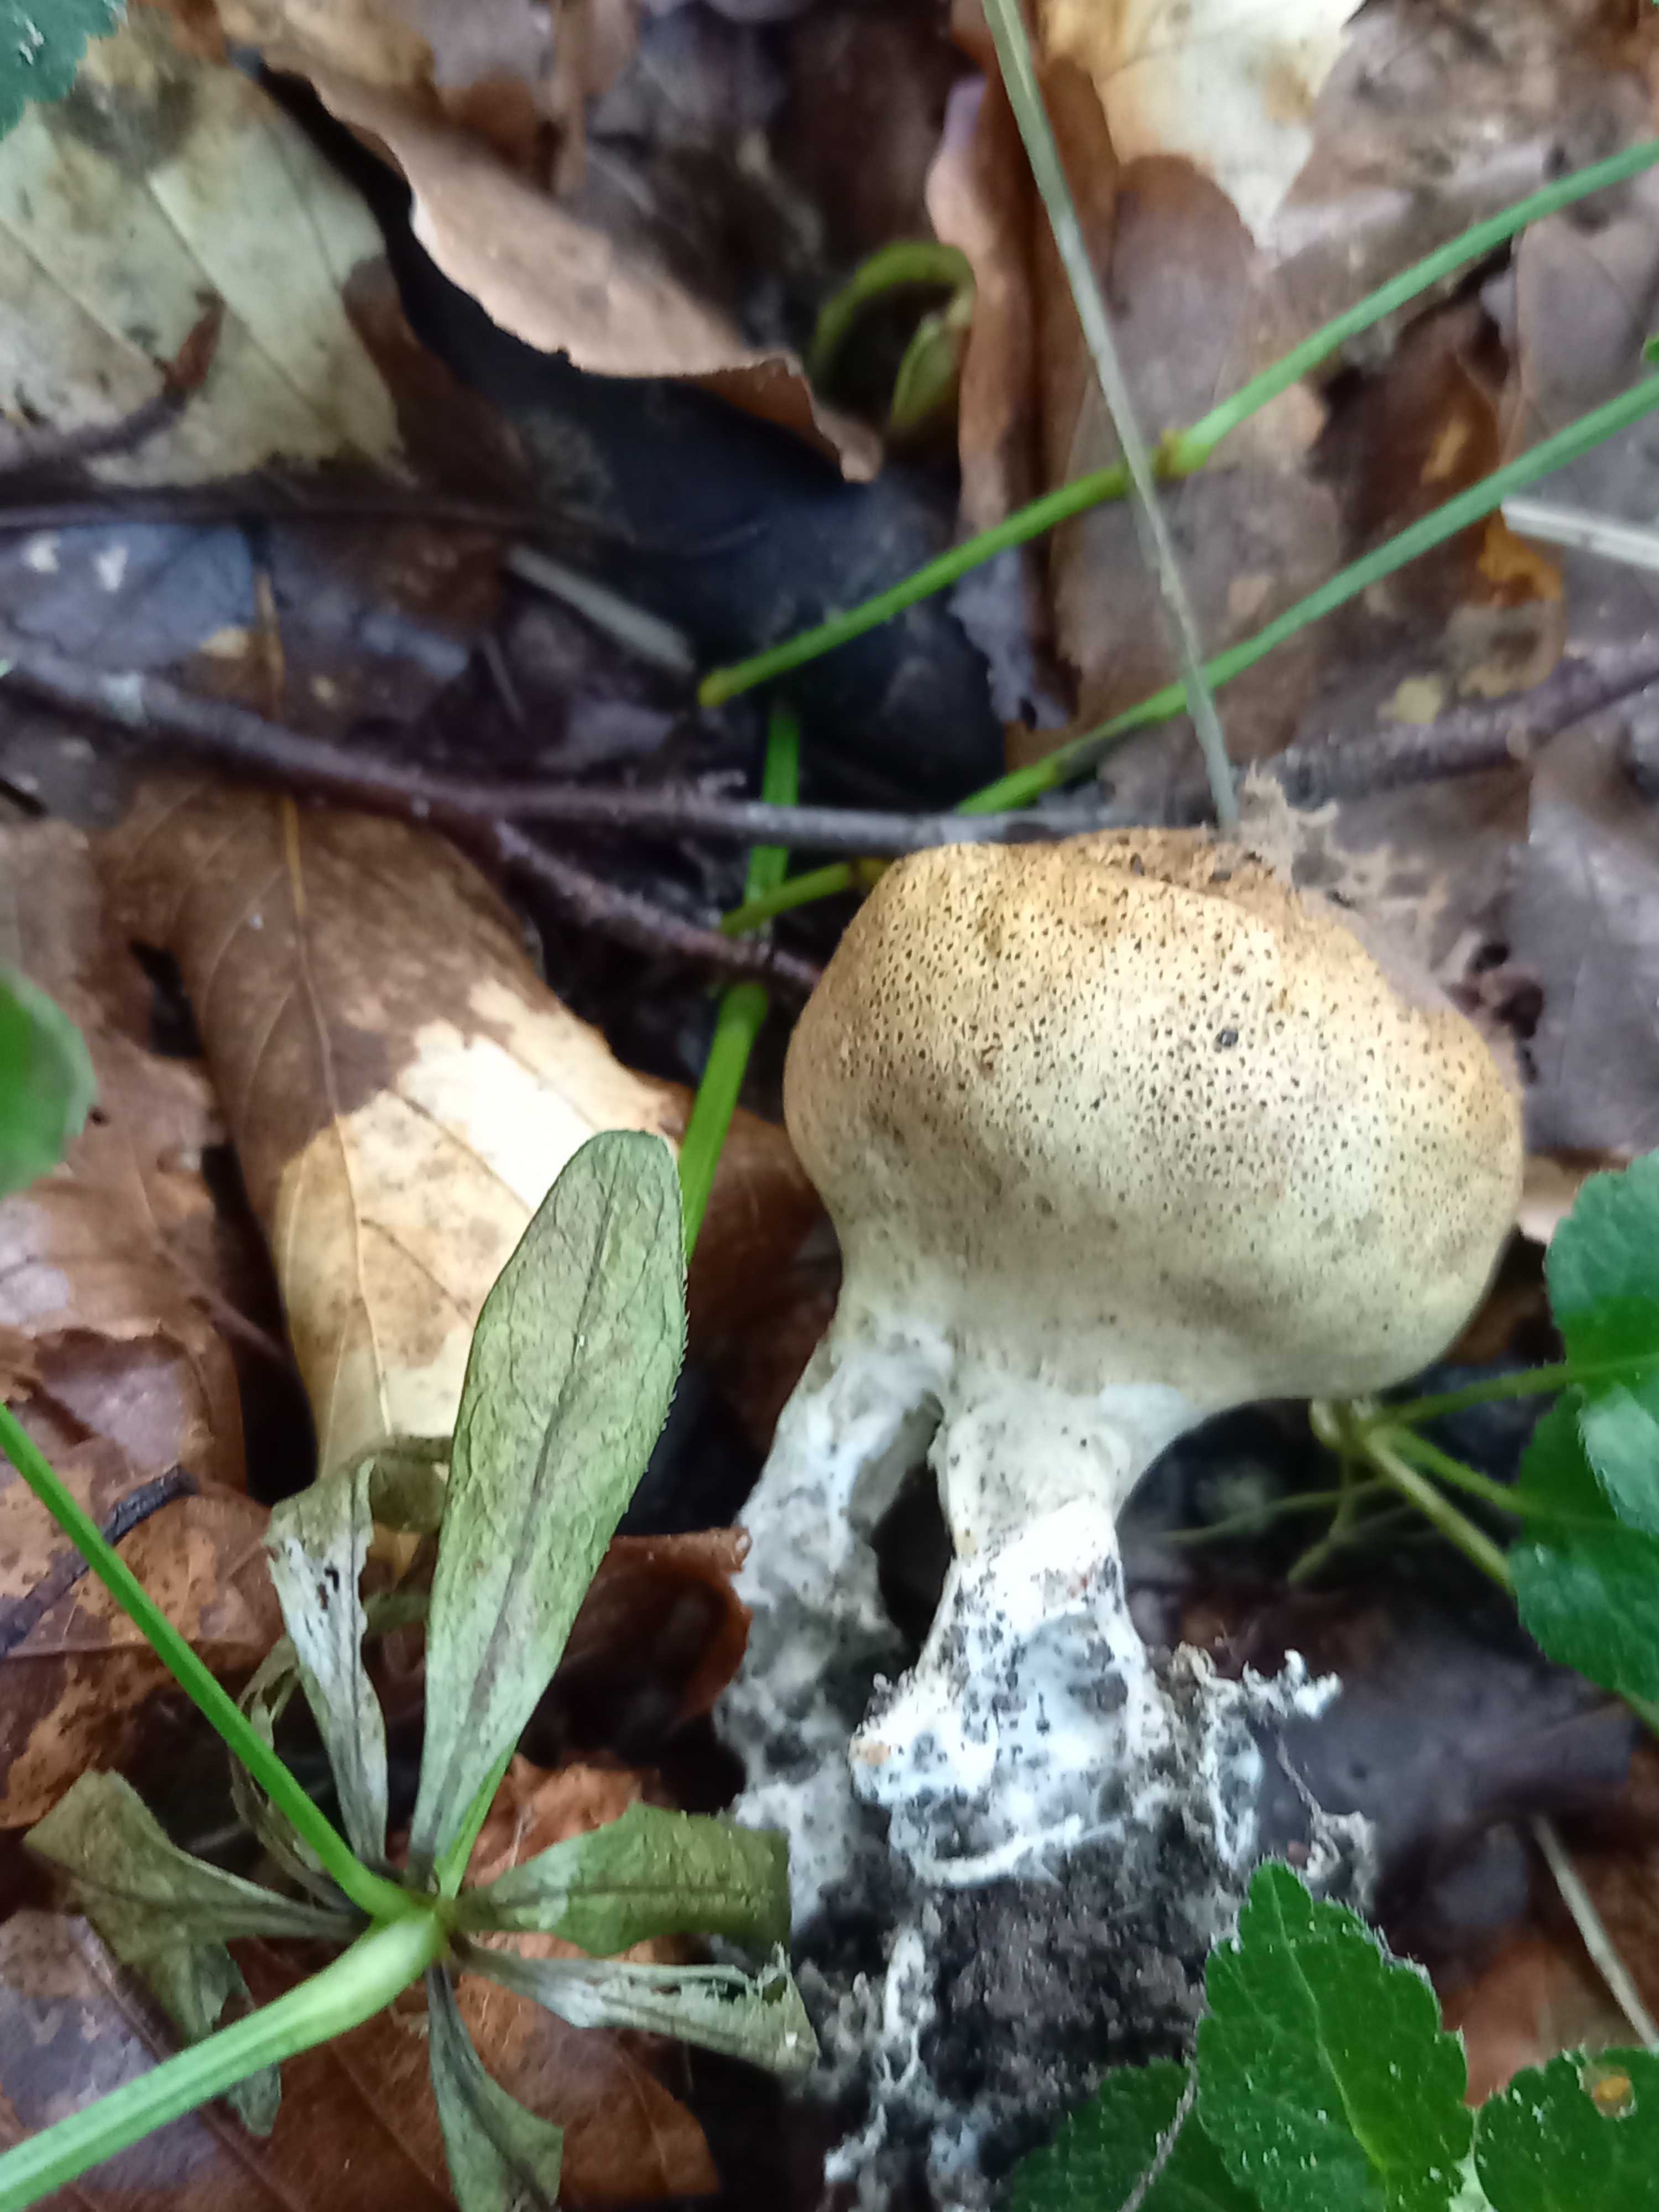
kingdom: Fungi
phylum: Basidiomycota
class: Agaricomycetes
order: Boletales
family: Sclerodermataceae
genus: Scleroderma
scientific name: Scleroderma verrucosum
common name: stilket bruskbold
